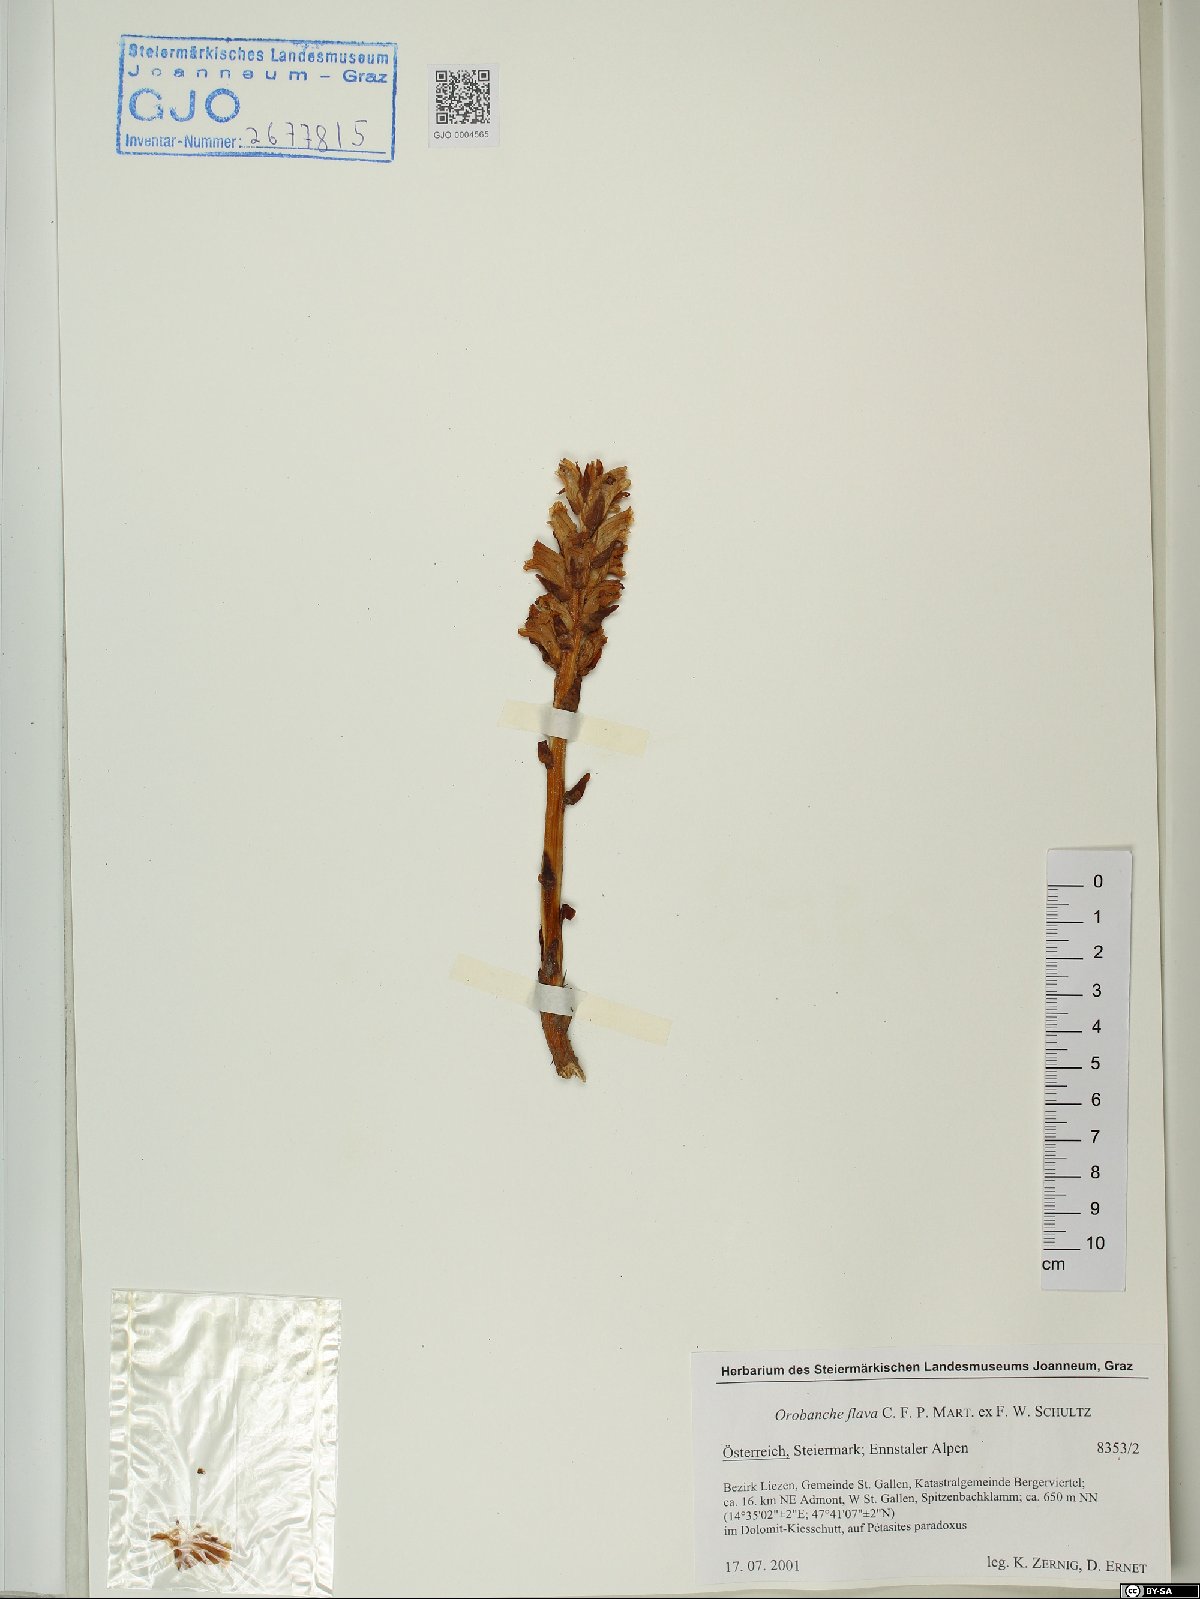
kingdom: Plantae
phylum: Tracheophyta
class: Magnoliopsida
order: Lamiales
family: Orobanchaceae
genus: Orobanche
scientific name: Orobanche flava
